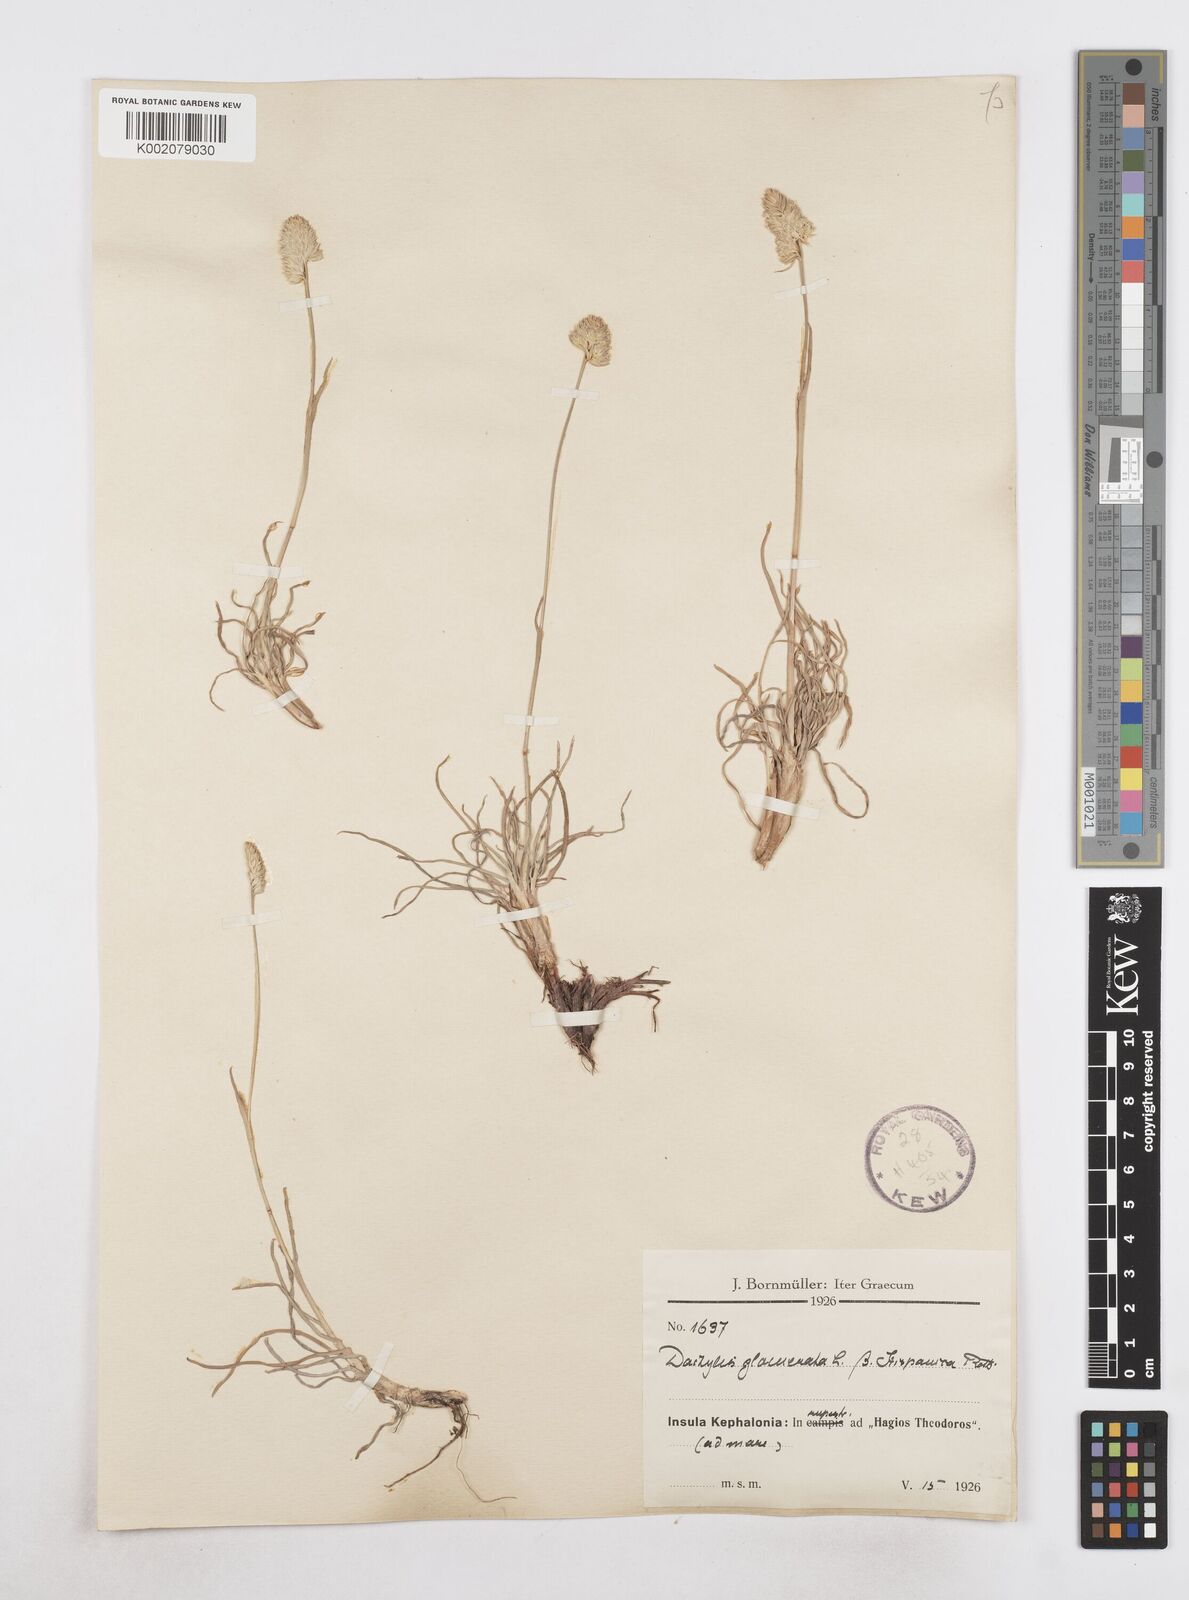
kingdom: Plantae
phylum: Tracheophyta
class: Liliopsida
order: Poales
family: Poaceae
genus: Dactylis
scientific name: Dactylis glomerata
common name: Orchardgrass
